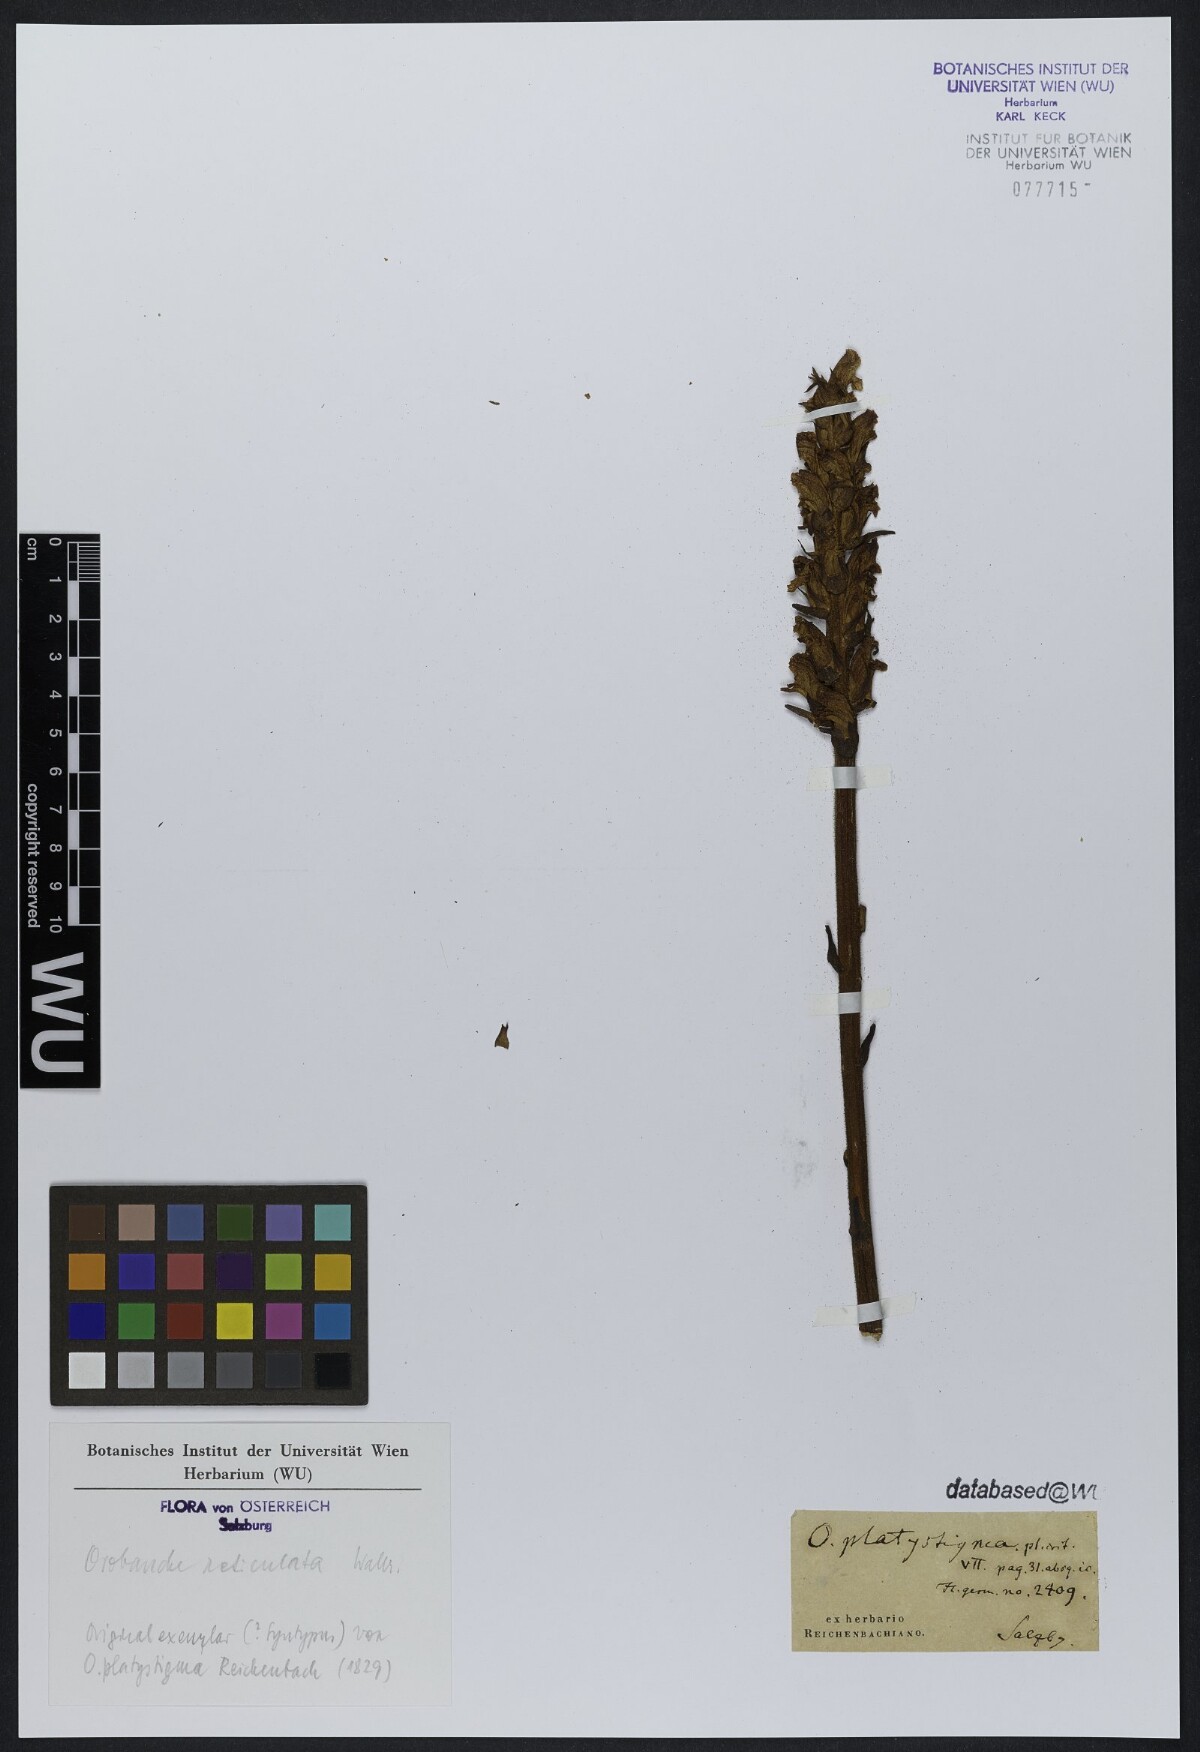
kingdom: Plantae
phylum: Tracheophyta
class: Magnoliopsida
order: Lamiales
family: Orobanchaceae
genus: Orobanche
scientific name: Orobanche reticulata
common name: Thistle broomrape
